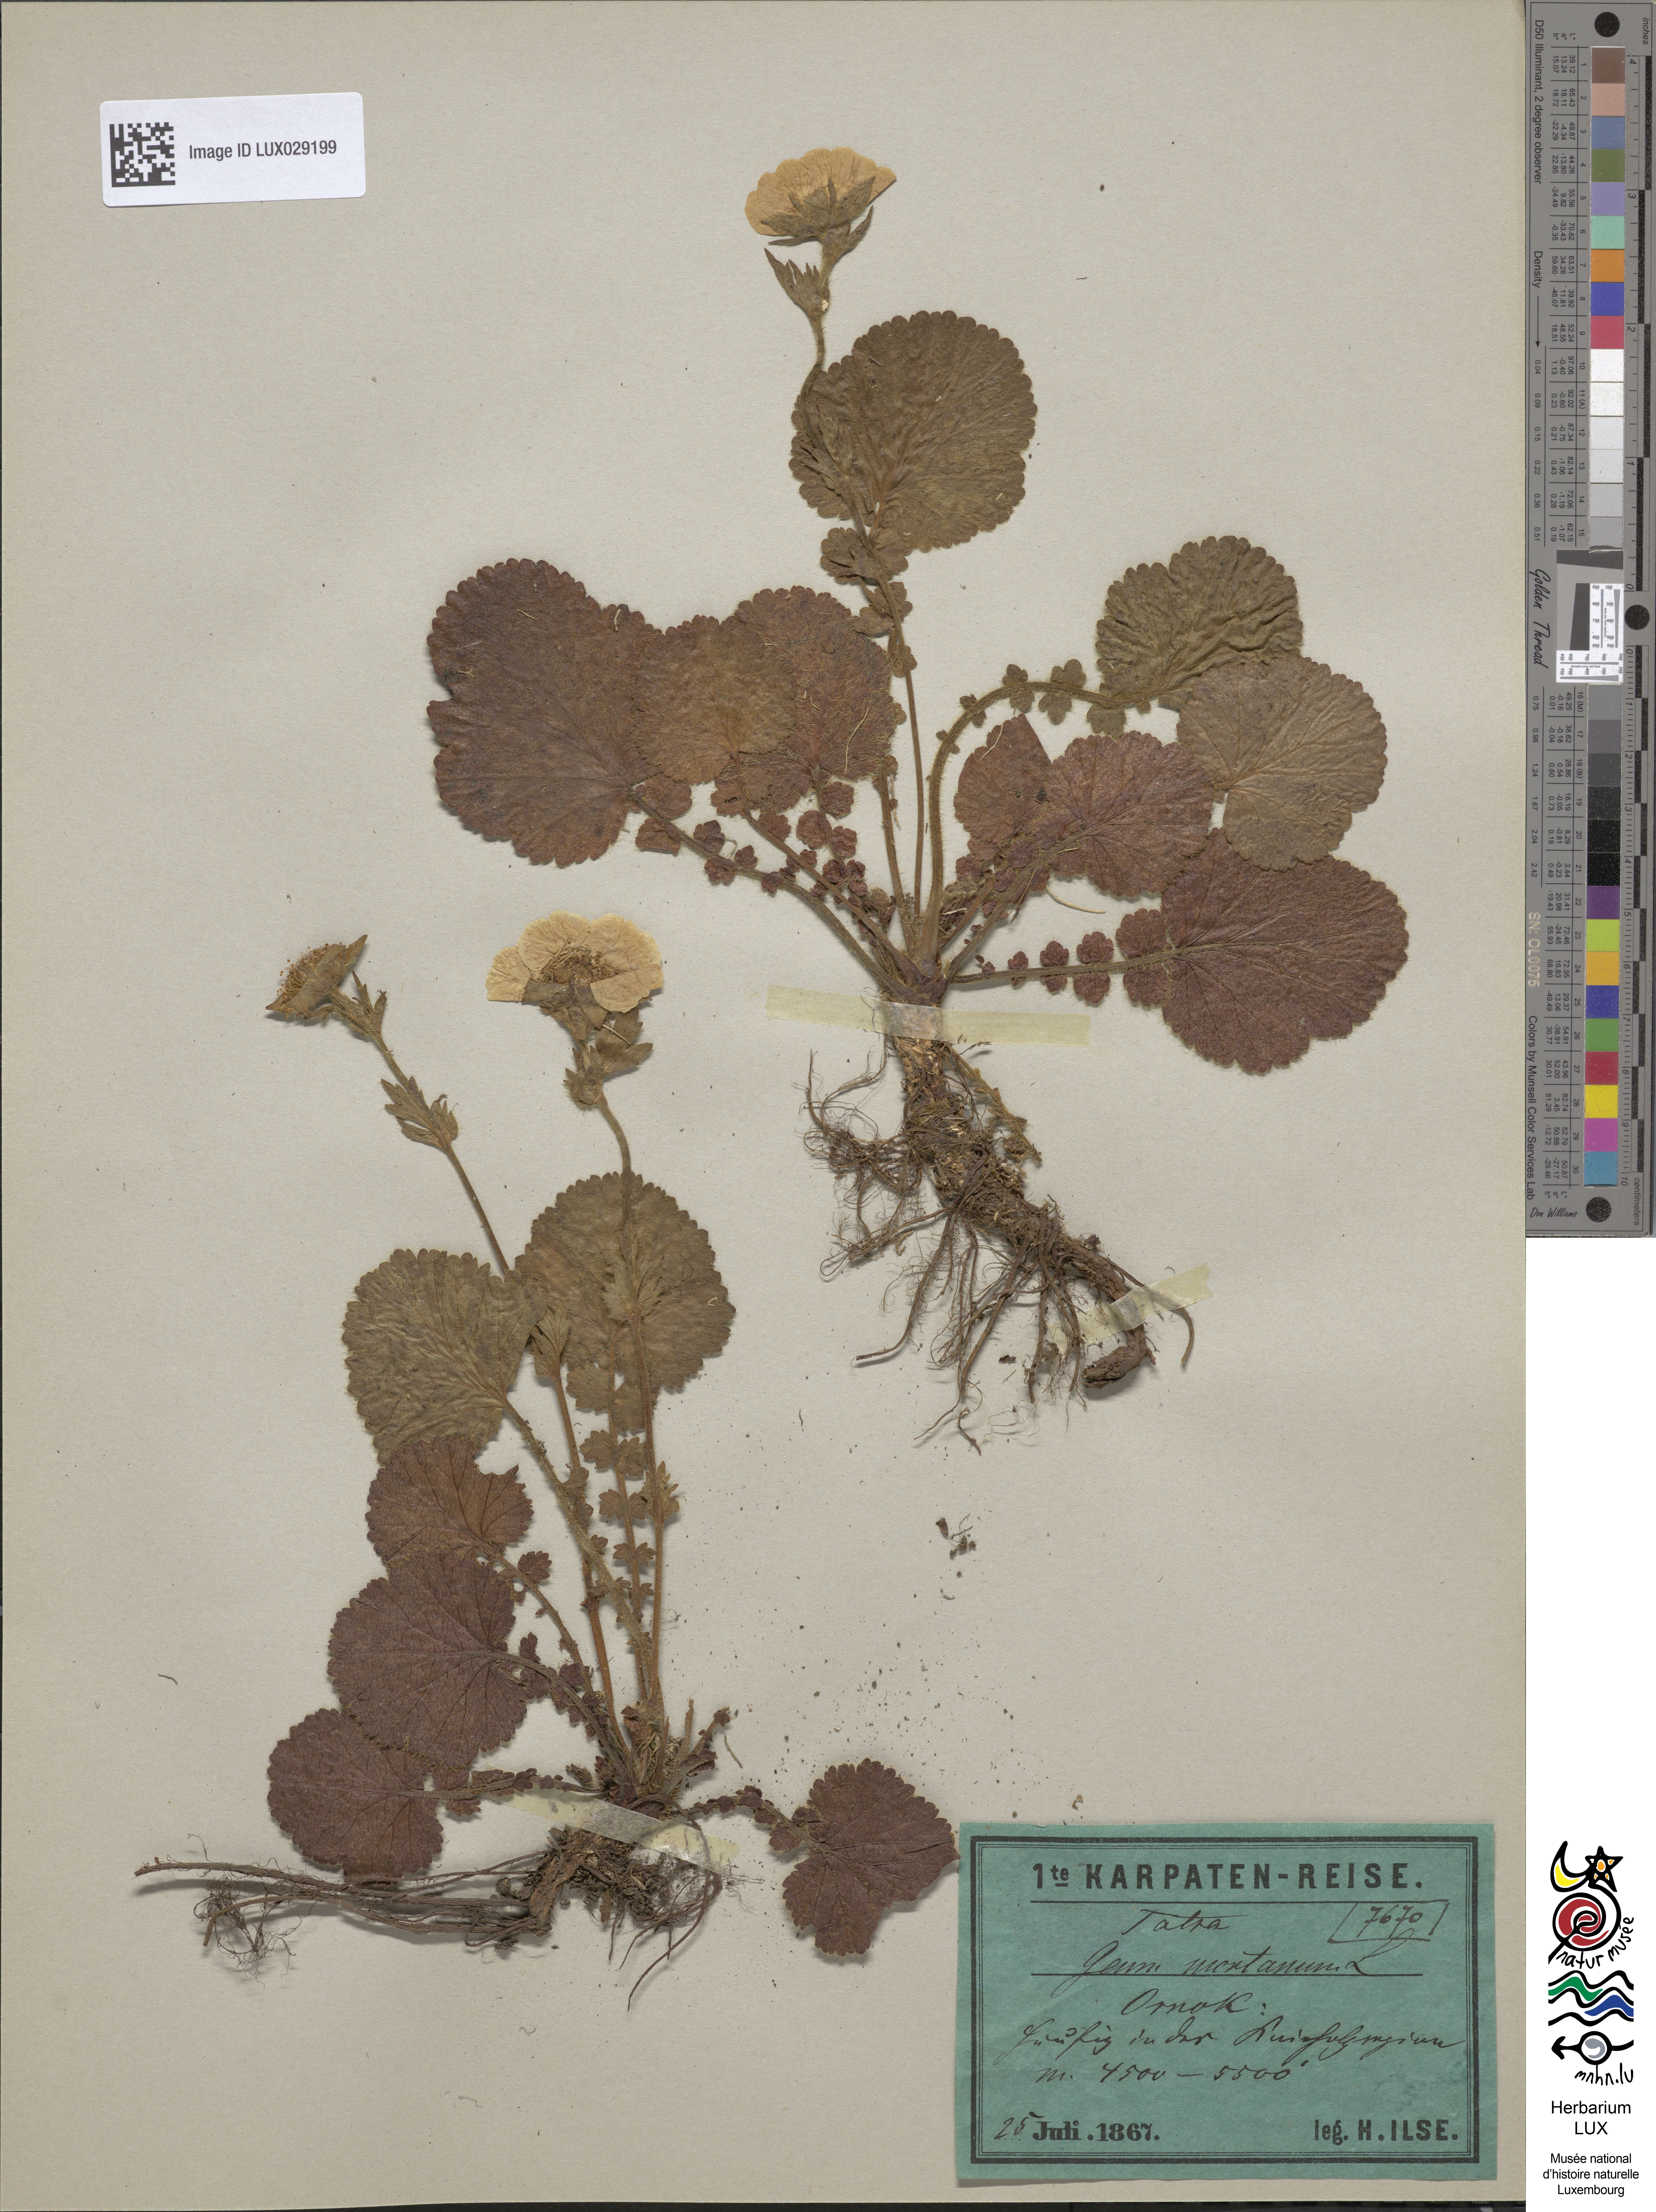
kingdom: Plantae
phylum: Tracheophyta
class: Magnoliopsida
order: Rosales
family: Rosaceae
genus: Geum
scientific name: Geum montanum
